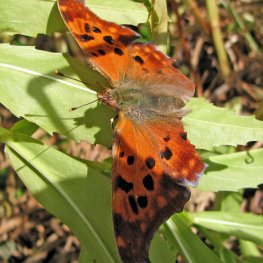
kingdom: Animalia
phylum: Arthropoda
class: Insecta
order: Lepidoptera
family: Nymphalidae
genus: Polygonia
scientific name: Polygonia interrogationis
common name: Question Mark
